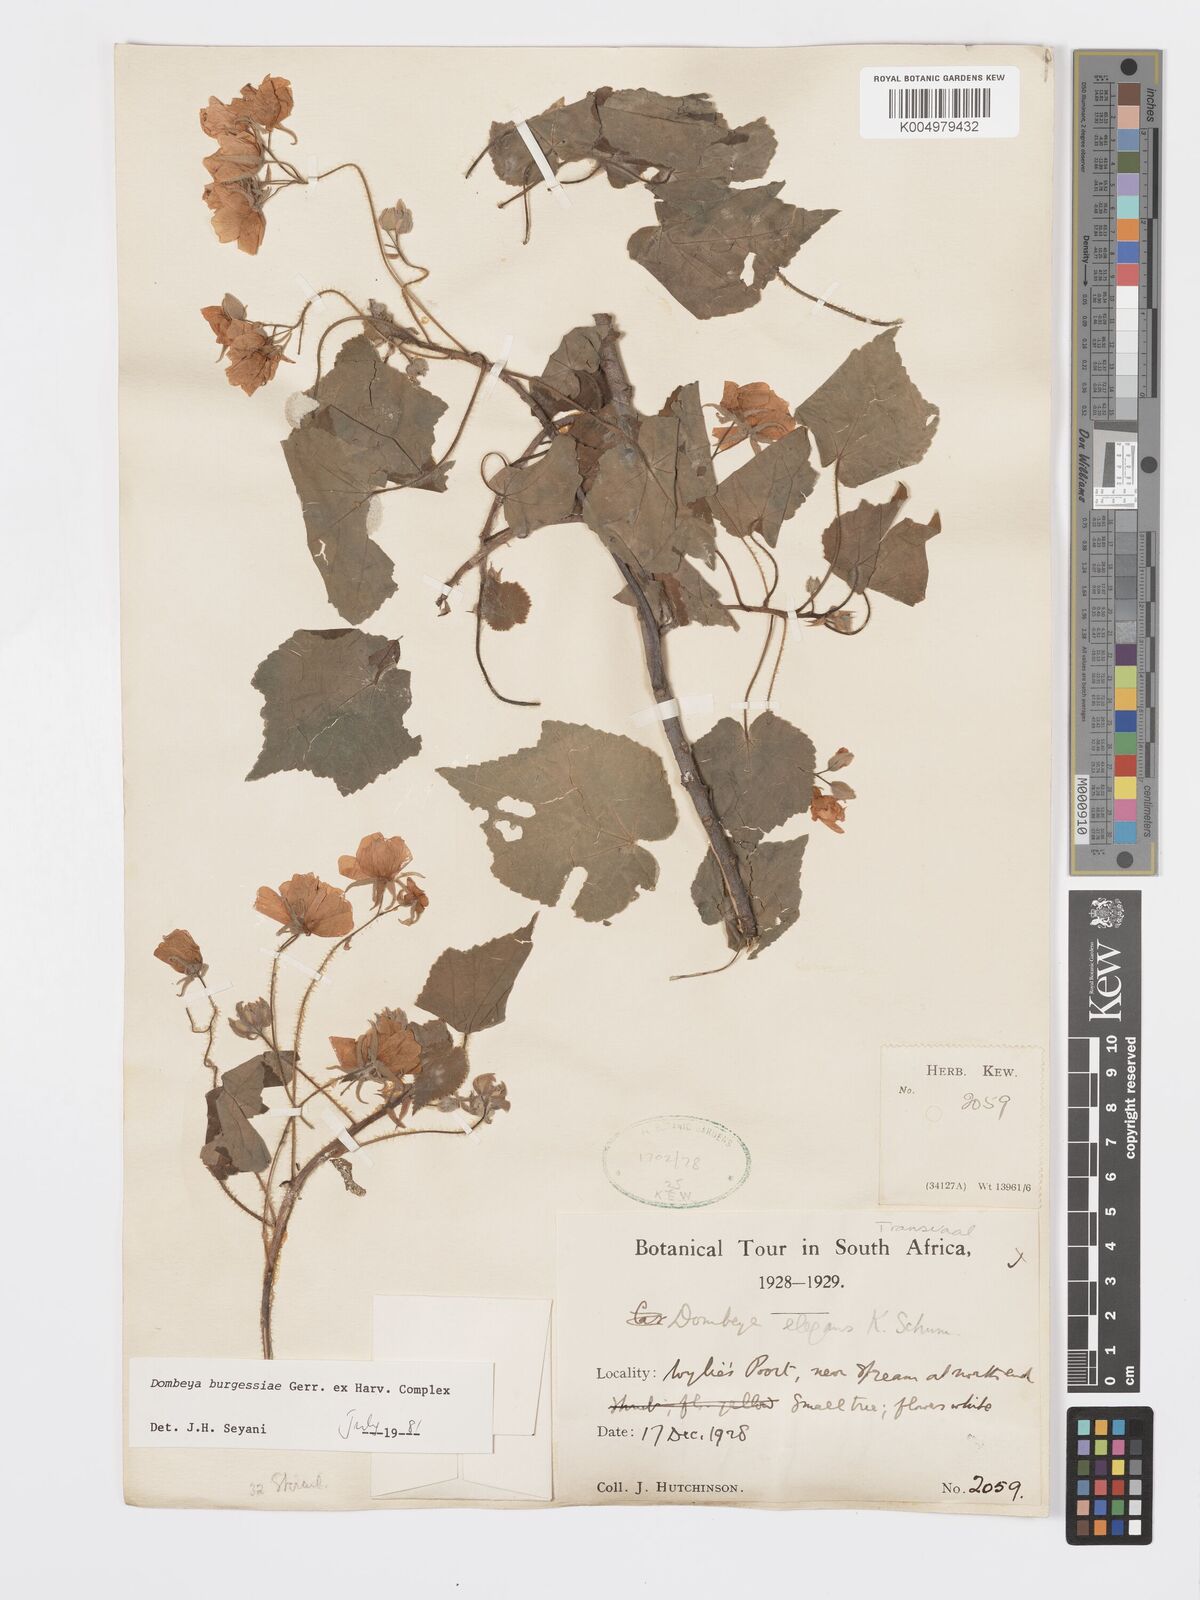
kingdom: Plantae
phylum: Tracheophyta
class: Magnoliopsida
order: Malvales
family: Malvaceae
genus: Dombeya
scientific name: Dombeya burgessiae
